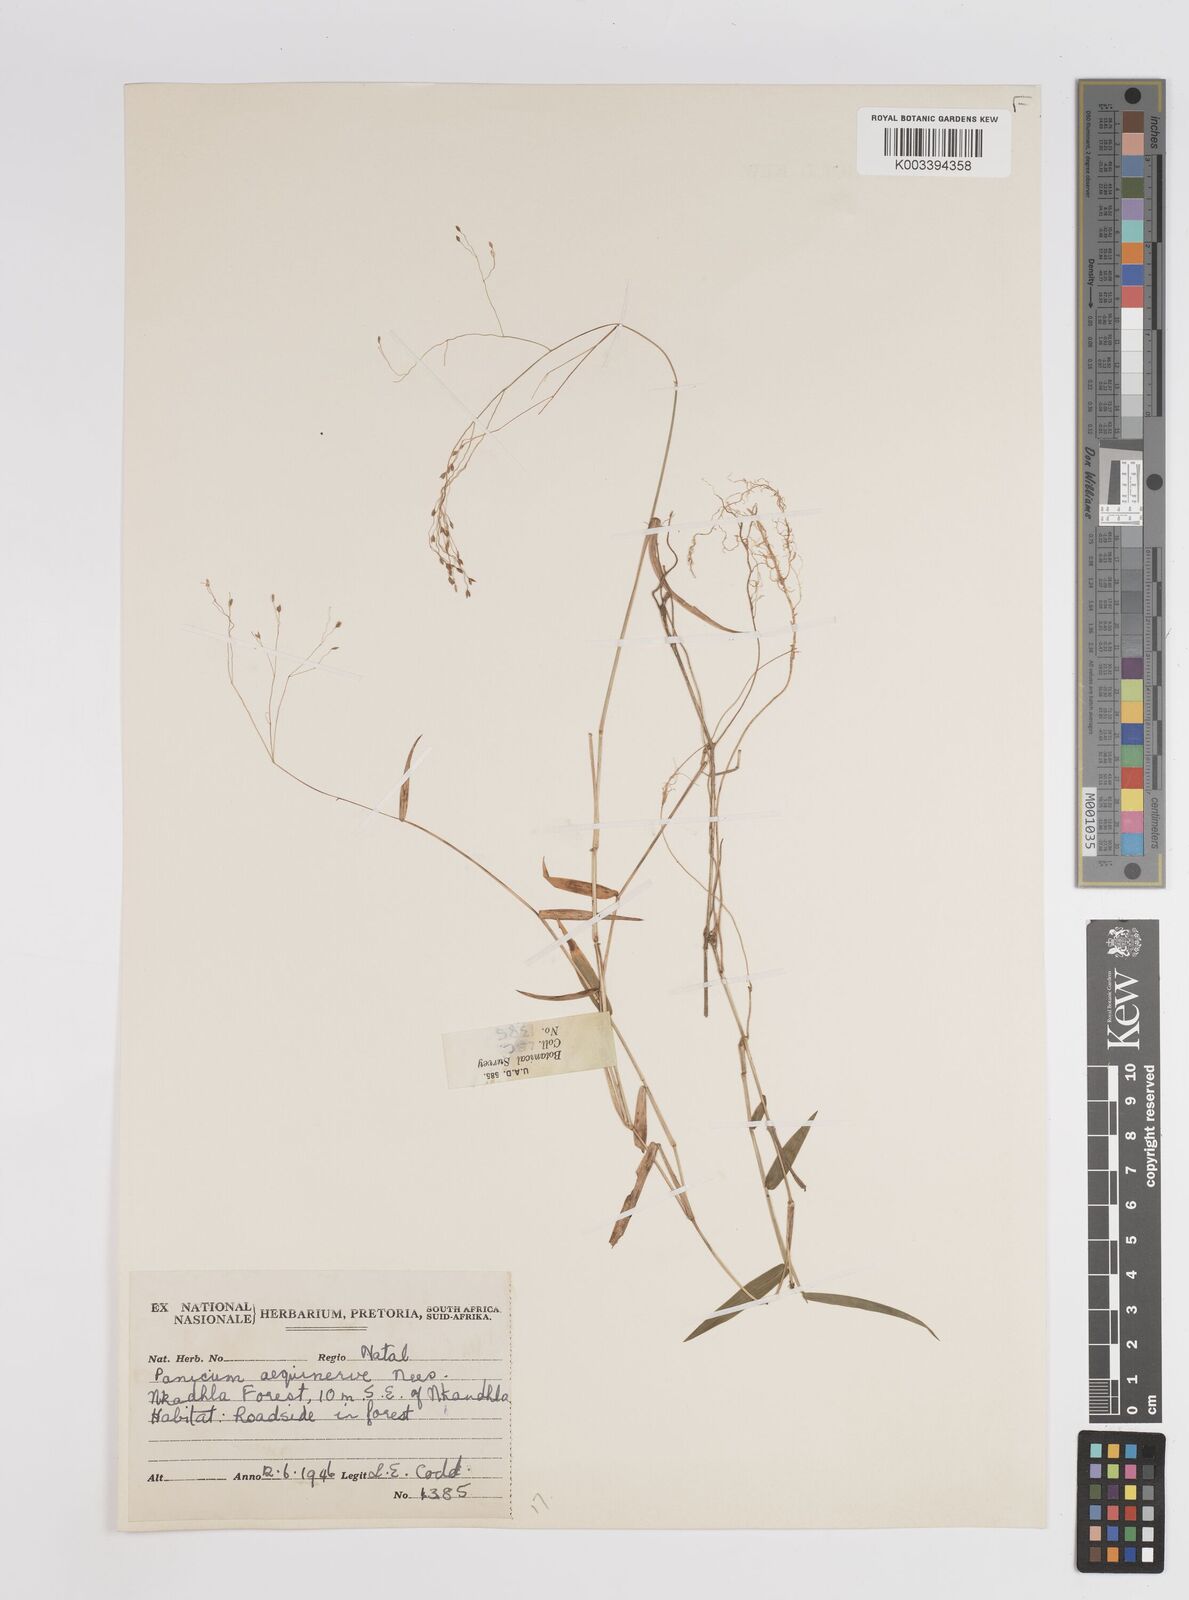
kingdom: Plantae
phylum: Tracheophyta
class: Liliopsida
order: Poales
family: Poaceae
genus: Panicum
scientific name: Panicum aequinerve
